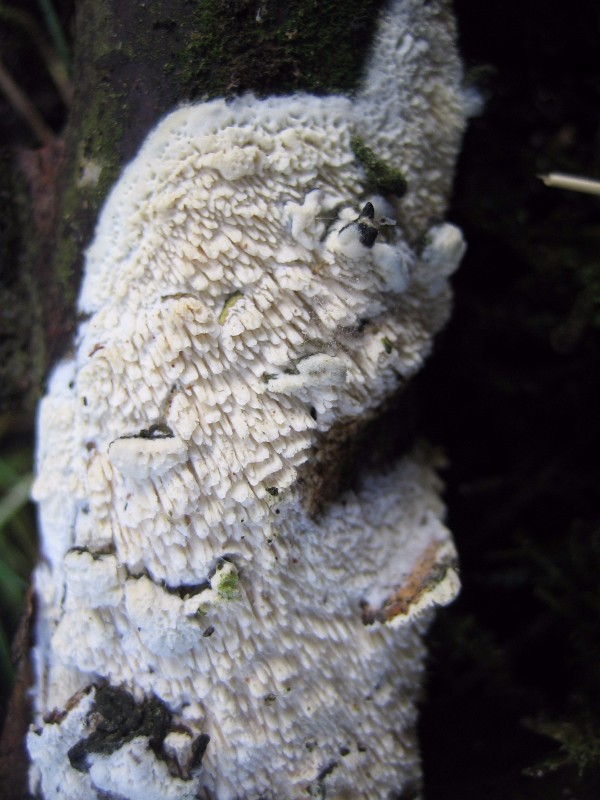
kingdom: Fungi
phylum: Basidiomycota
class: Agaricomycetes
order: Hymenochaetales
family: Schizoporaceae
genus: Schizopora
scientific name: Schizopora paradoxa
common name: hvid tandsvamp
